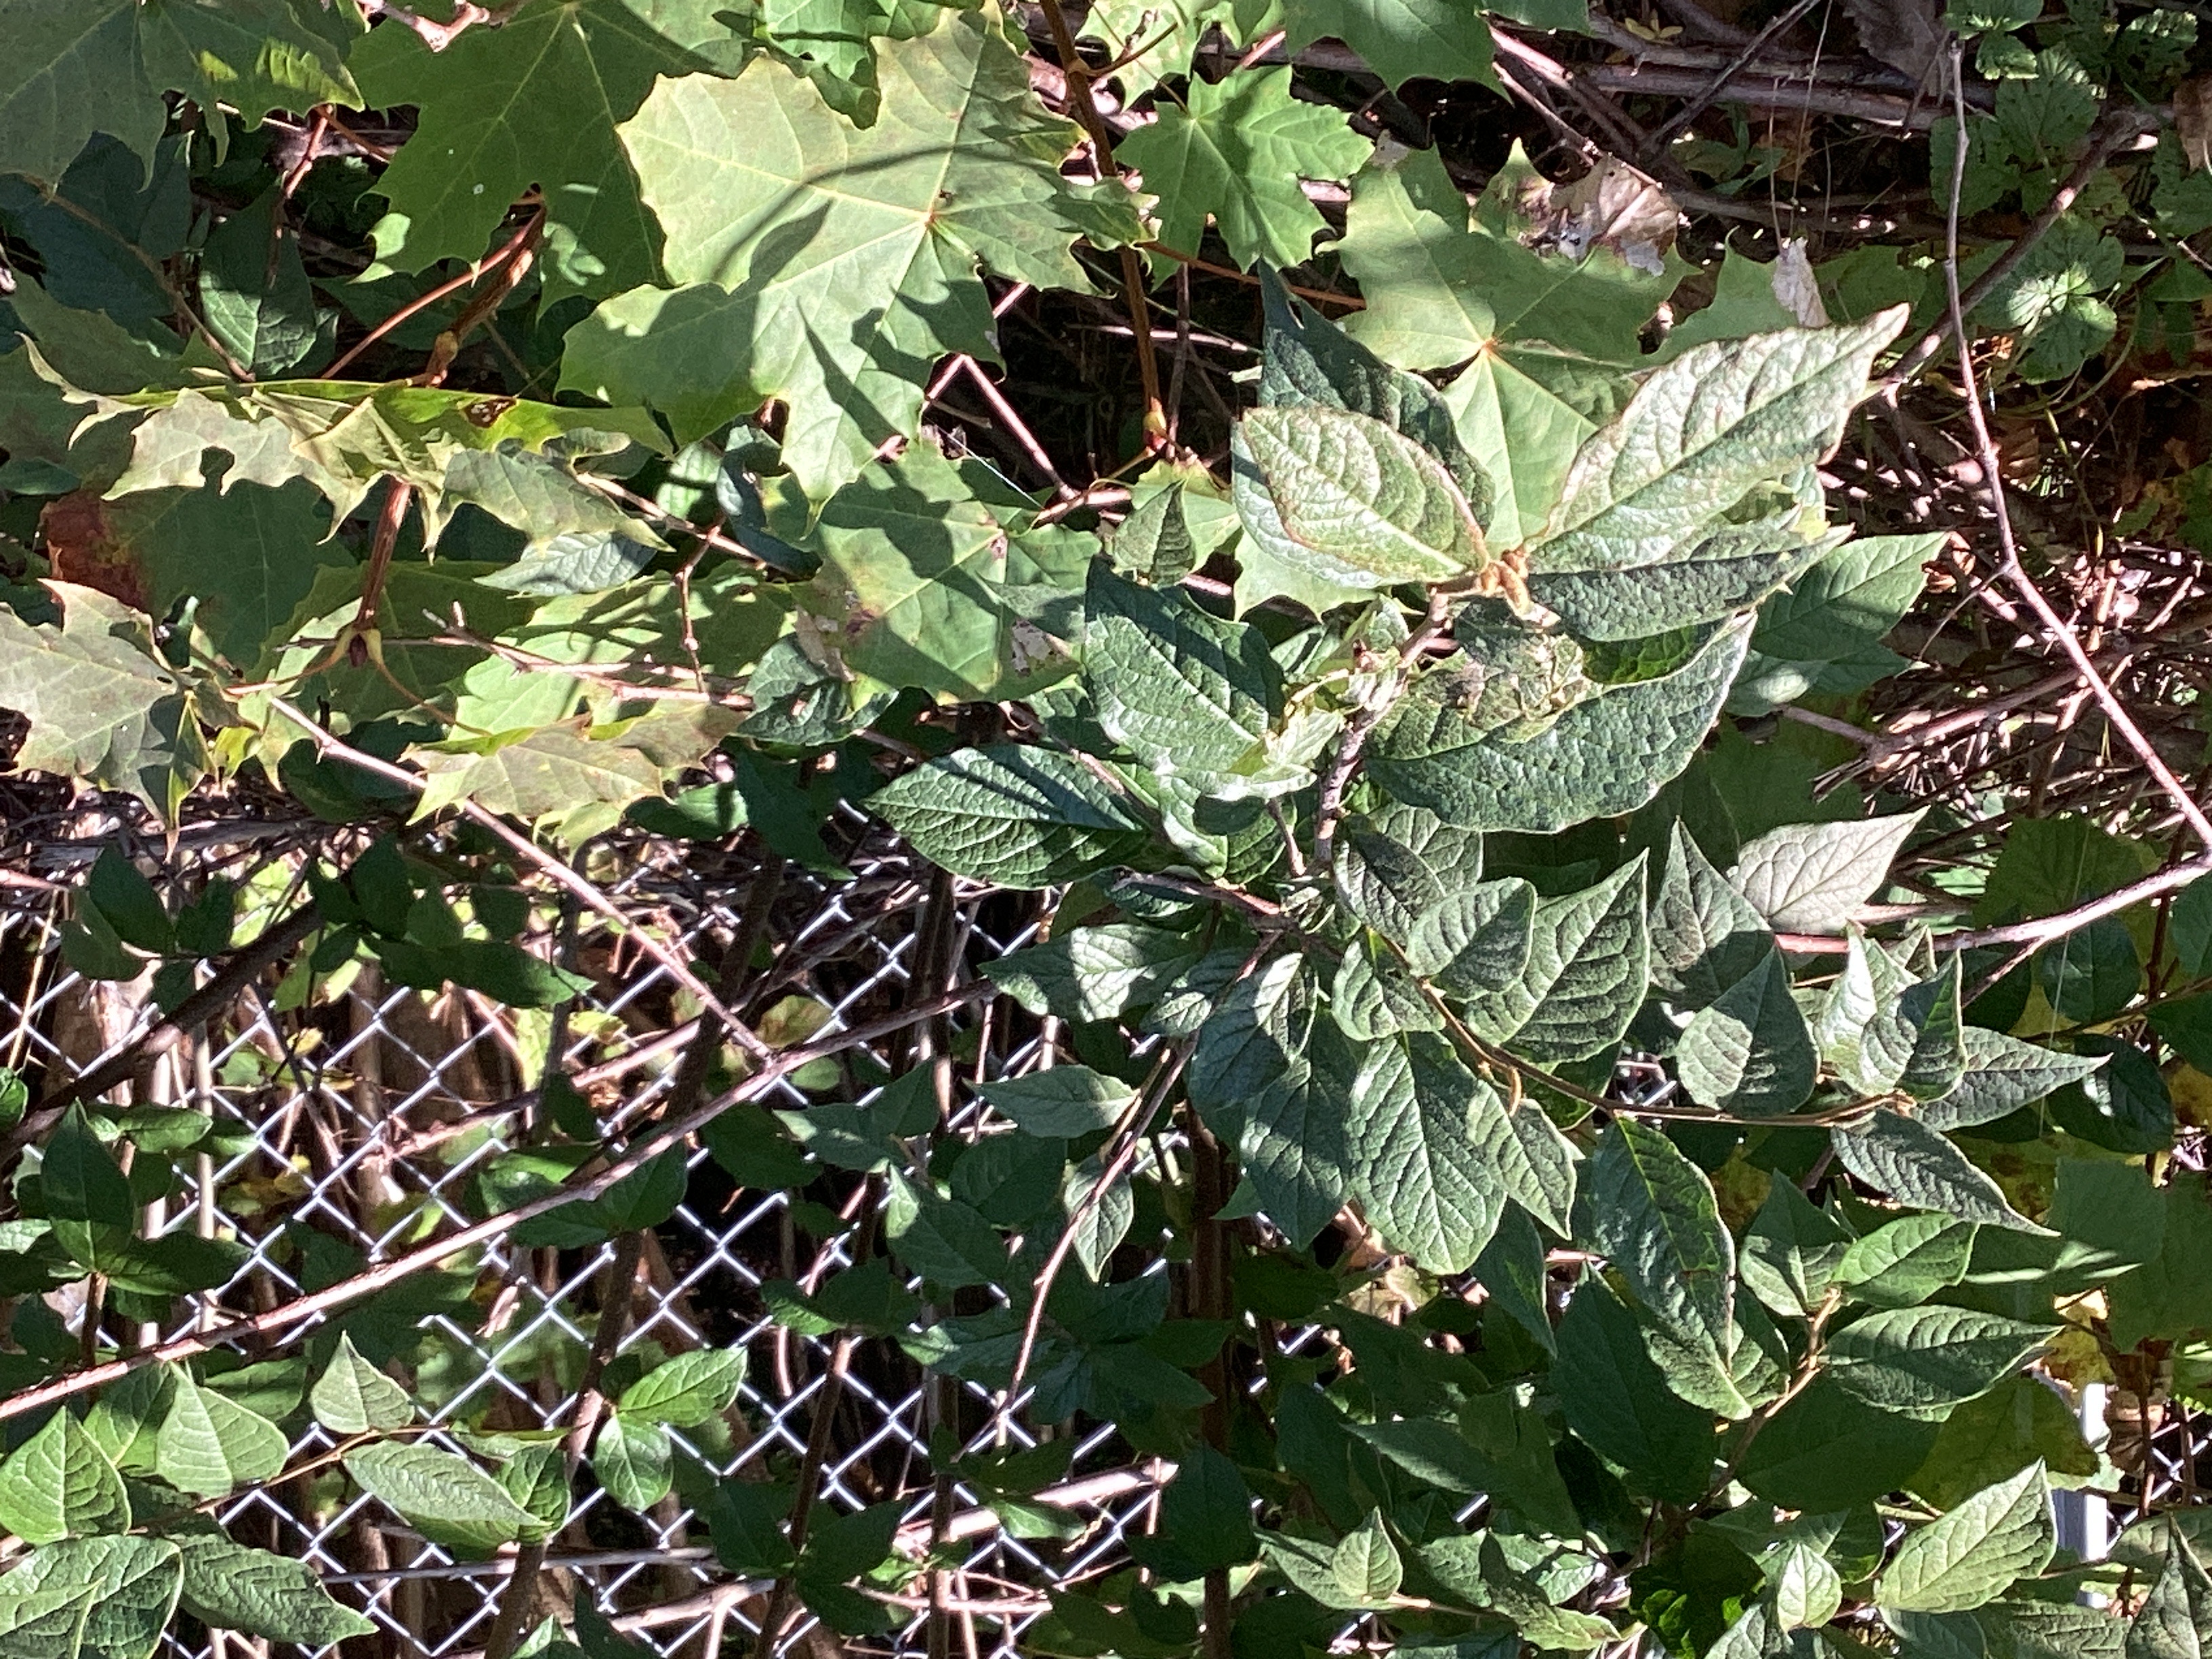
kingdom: Plantae
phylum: Tracheophyta
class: Magnoliopsida
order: Rosales
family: Rosaceae
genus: Cotoneaster
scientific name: Cotoneaster bullatus
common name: bulkemispel
